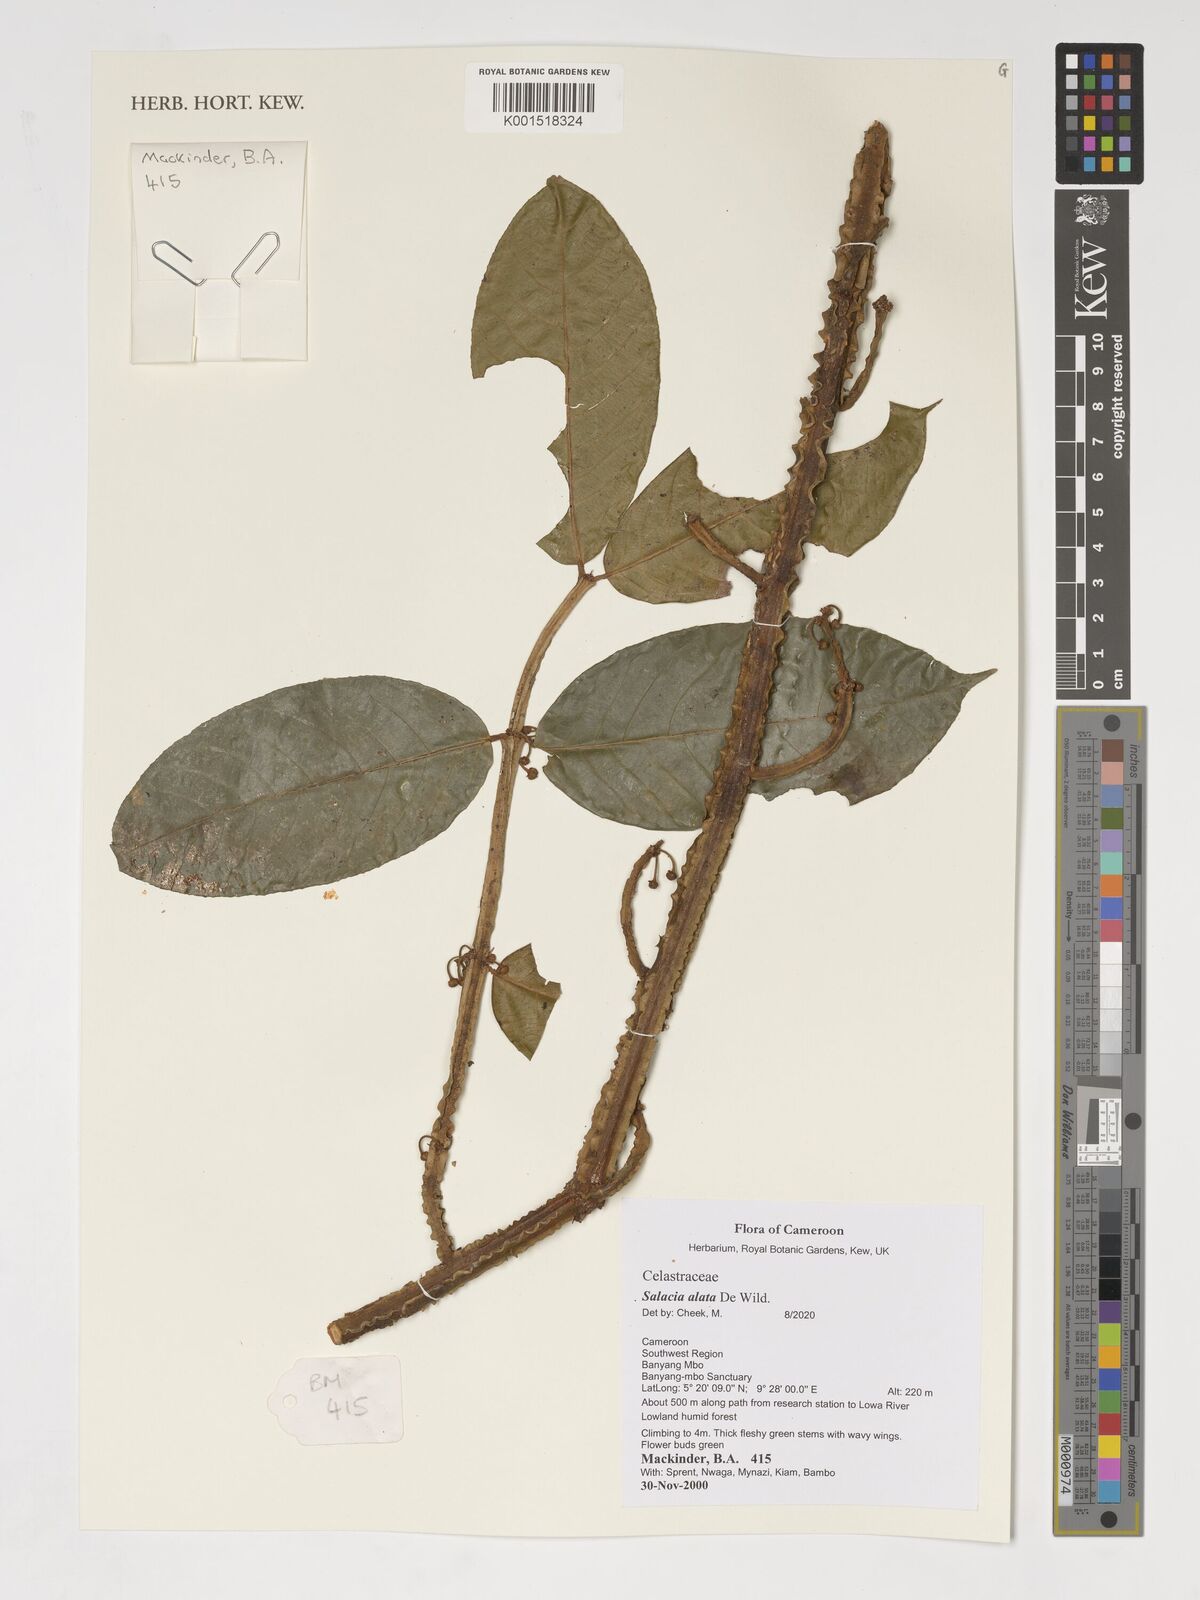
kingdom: Plantae
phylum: Tracheophyta
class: Magnoliopsida
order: Celastrales
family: Celastraceae
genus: Salacia
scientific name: Salacia alata
